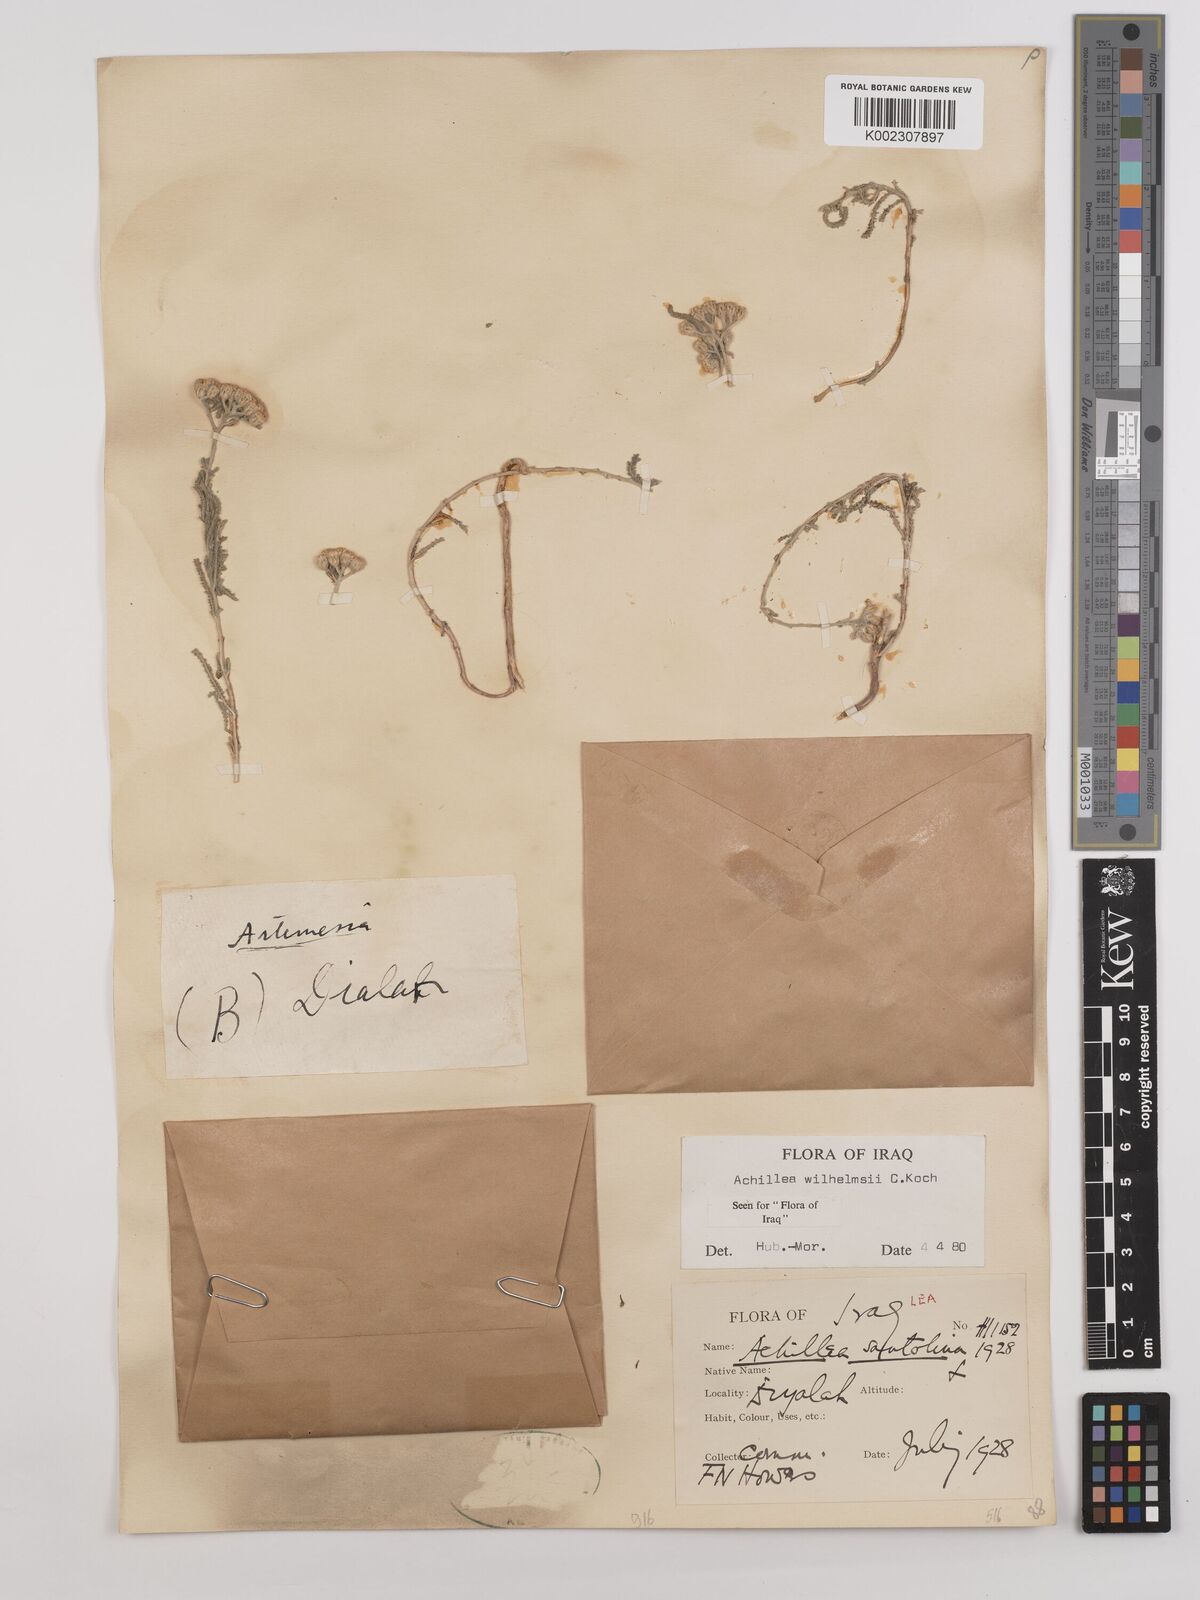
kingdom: Plantae
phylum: Tracheophyta
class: Magnoliopsida
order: Asterales
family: Asteraceae
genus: Achillea
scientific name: Achillea wilhelmsii
